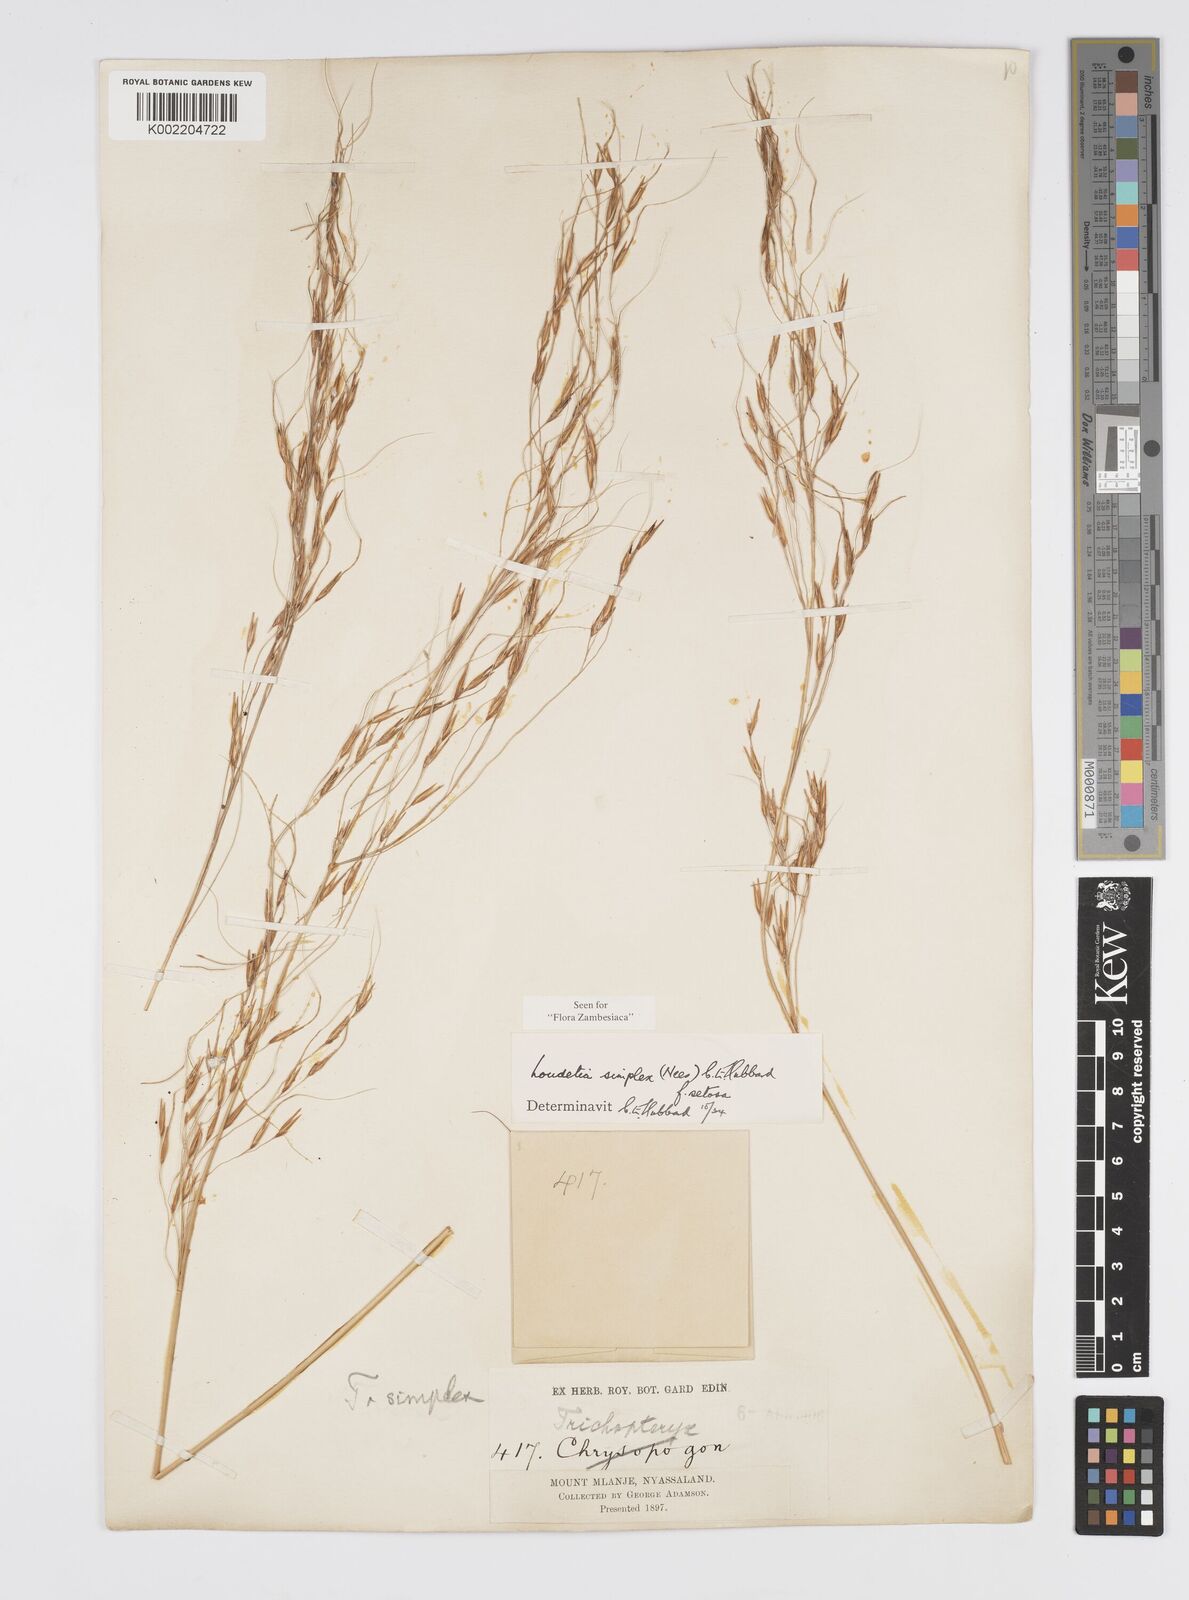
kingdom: Plantae
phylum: Tracheophyta
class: Liliopsida
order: Poales
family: Poaceae
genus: Loudetia
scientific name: Loudetia simplex
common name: Common russet grass
